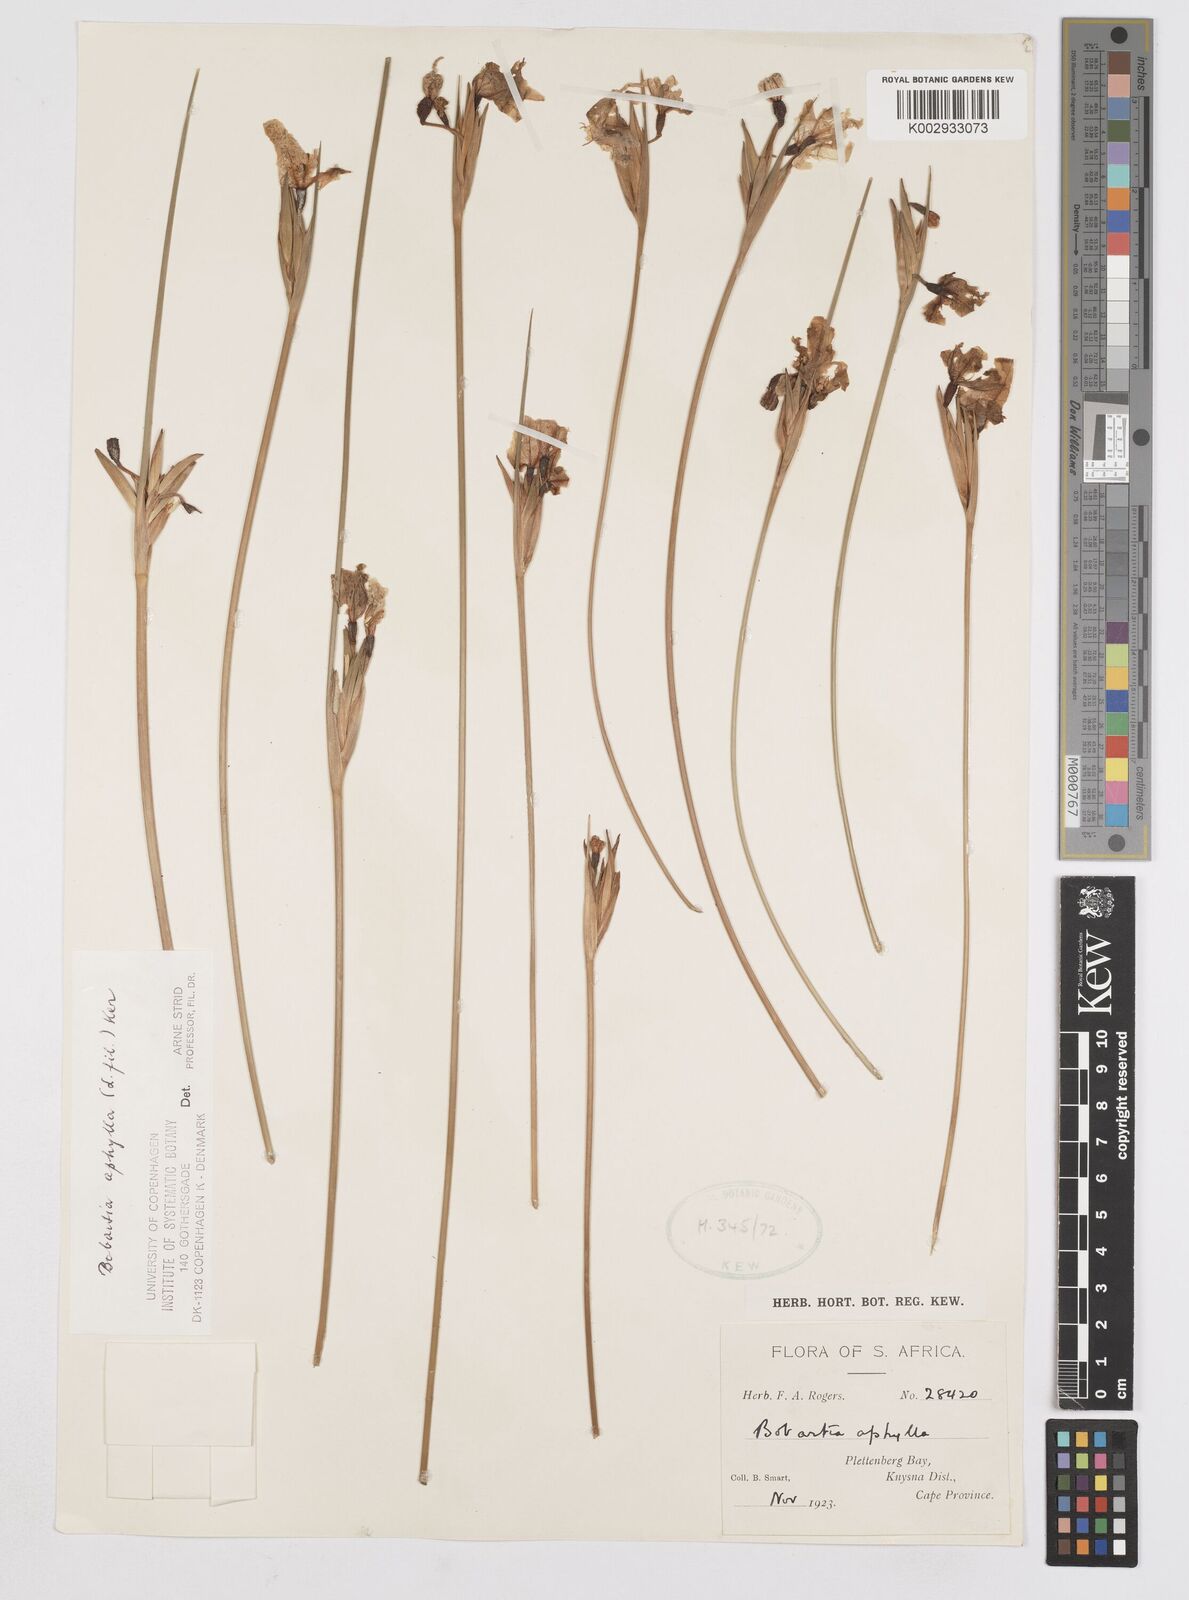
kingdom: Plantae
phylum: Tracheophyta
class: Liliopsida
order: Asparagales
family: Iridaceae
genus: Bobartia
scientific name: Bobartia aphylla
